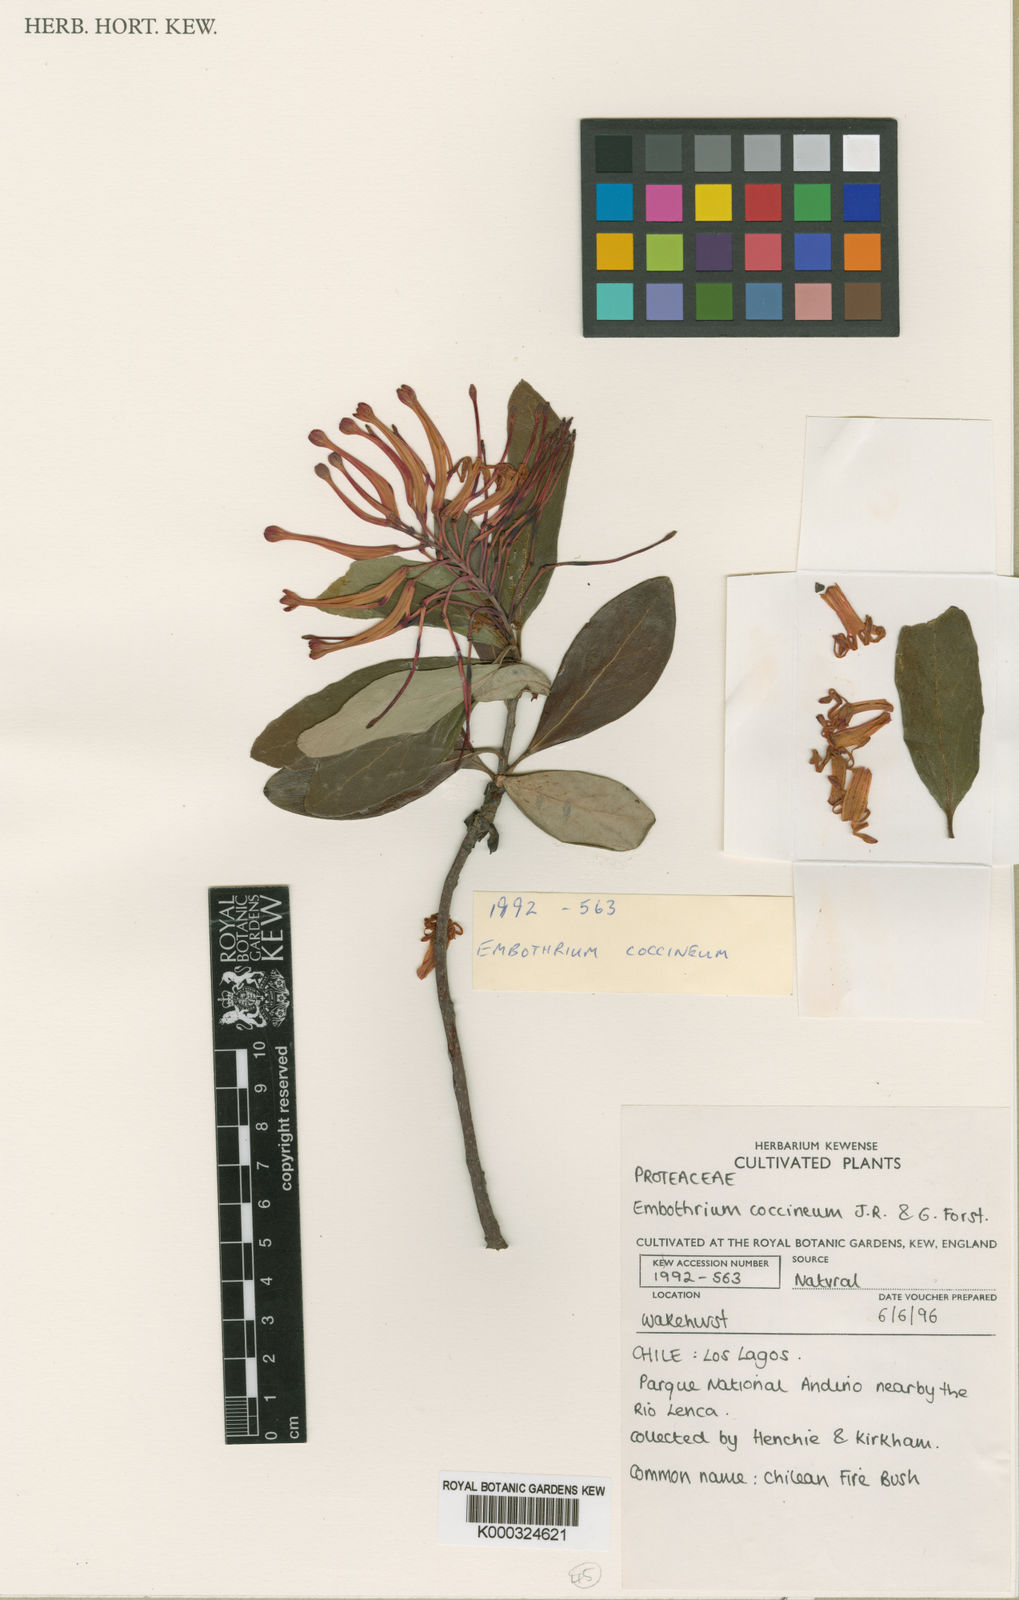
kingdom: Plantae
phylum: Tracheophyta
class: Magnoliopsida
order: Proteales
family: Proteaceae
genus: Embothrium
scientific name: Embothrium coccineum
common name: Chilean firebush
